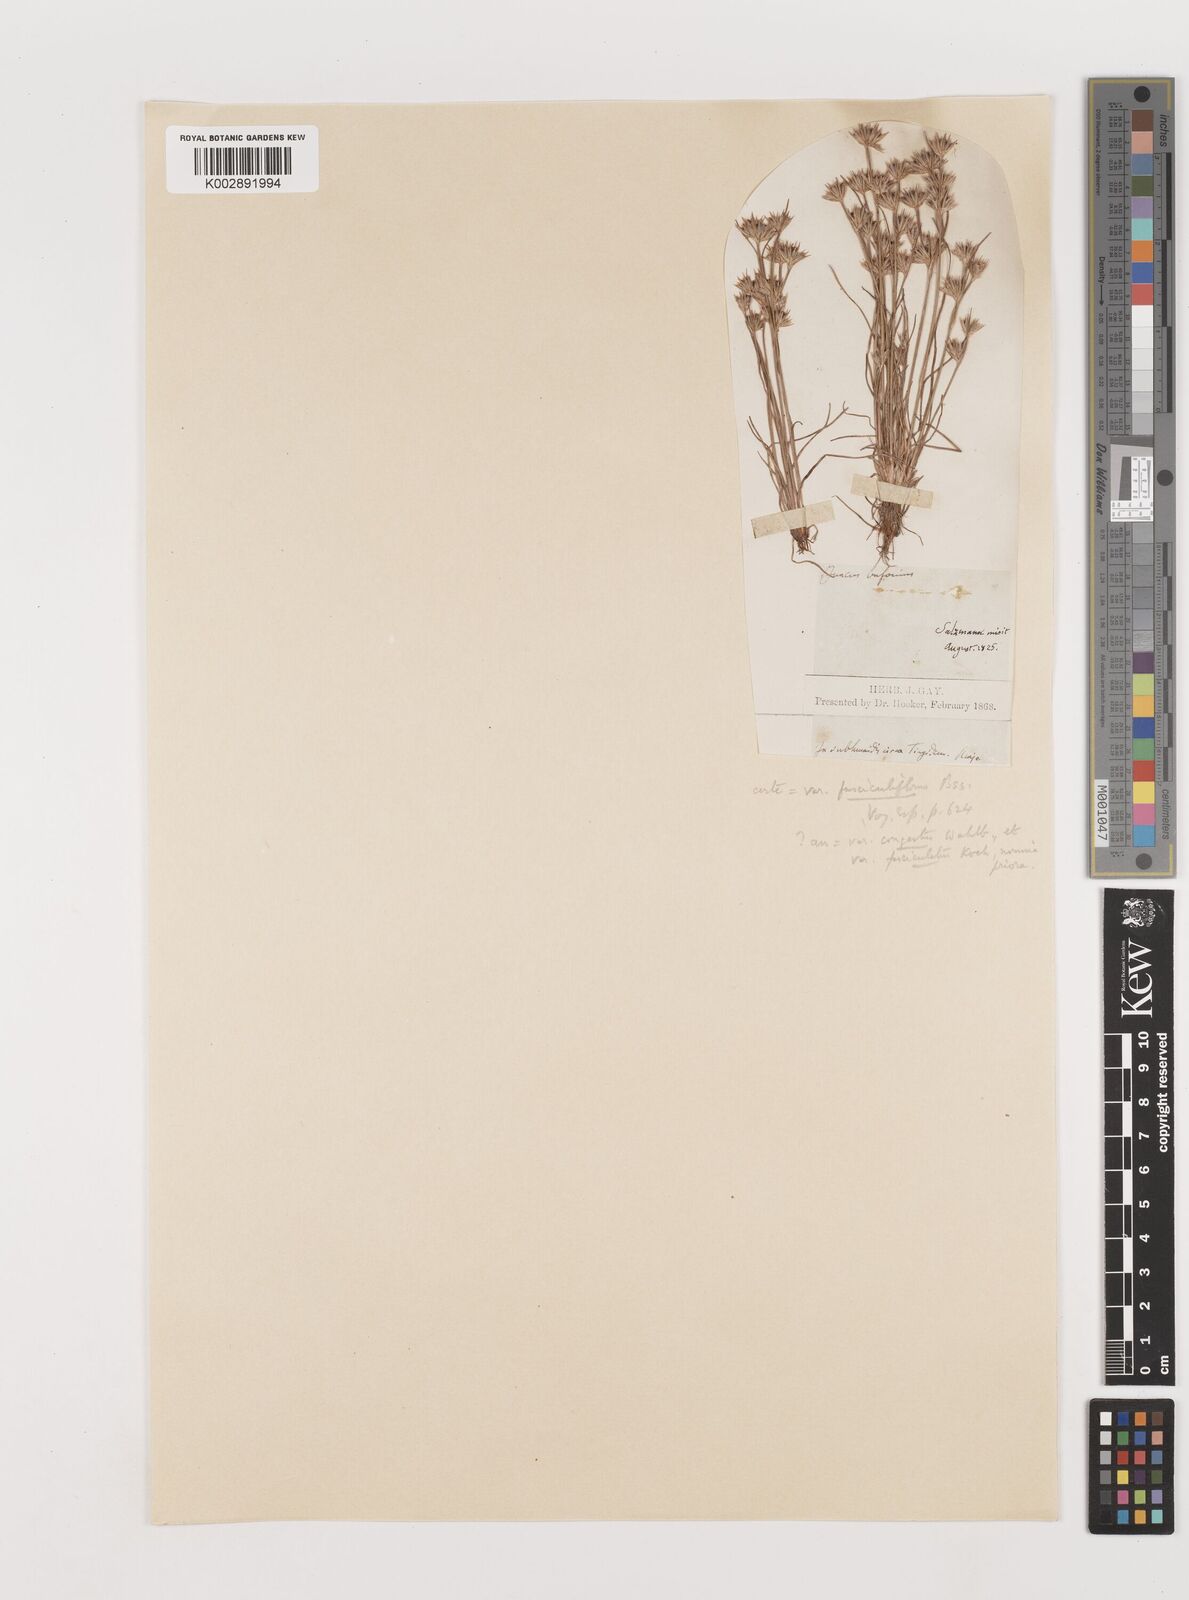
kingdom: Plantae
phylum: Tracheophyta
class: Liliopsida
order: Poales
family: Juncaceae
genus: Juncus
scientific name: Juncus bufonius
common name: Toad rush
